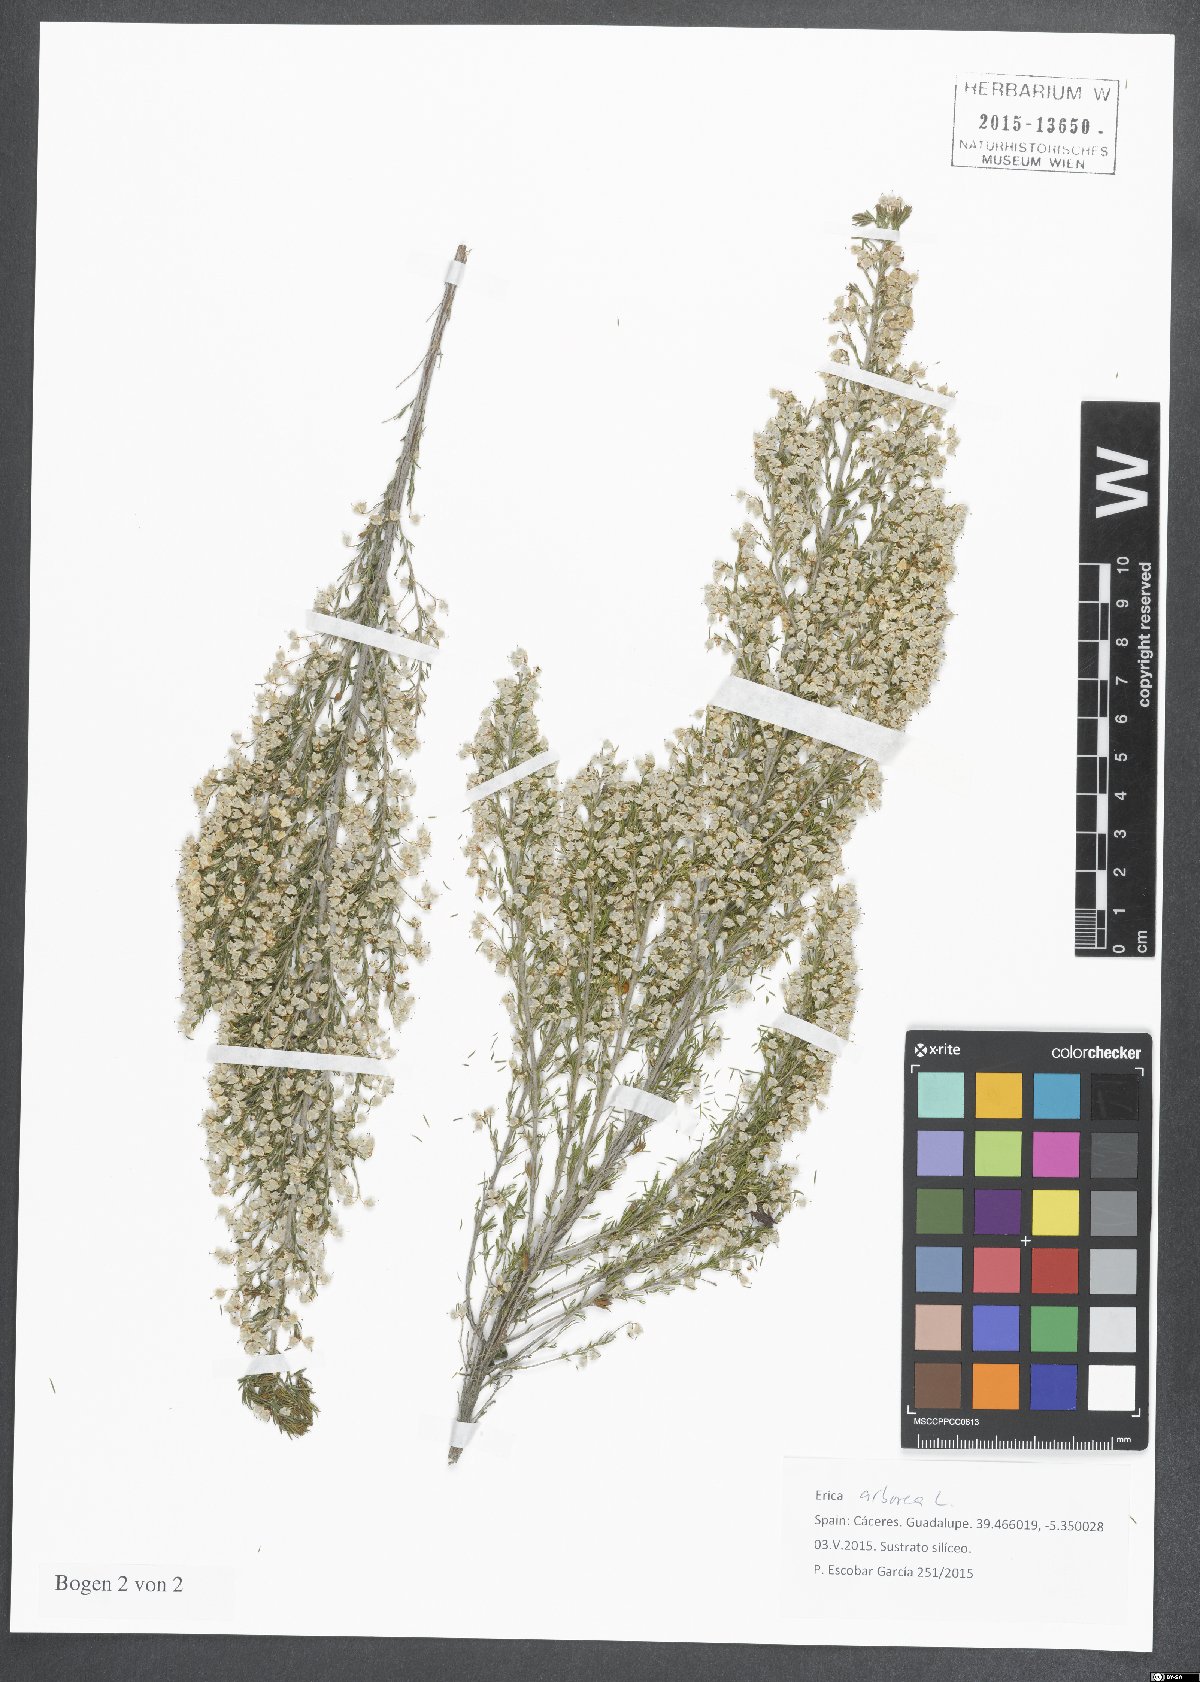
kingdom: Plantae
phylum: Tracheophyta
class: Magnoliopsida
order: Ericales
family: Ericaceae
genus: Erica
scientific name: Erica arborea
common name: Tree heath
